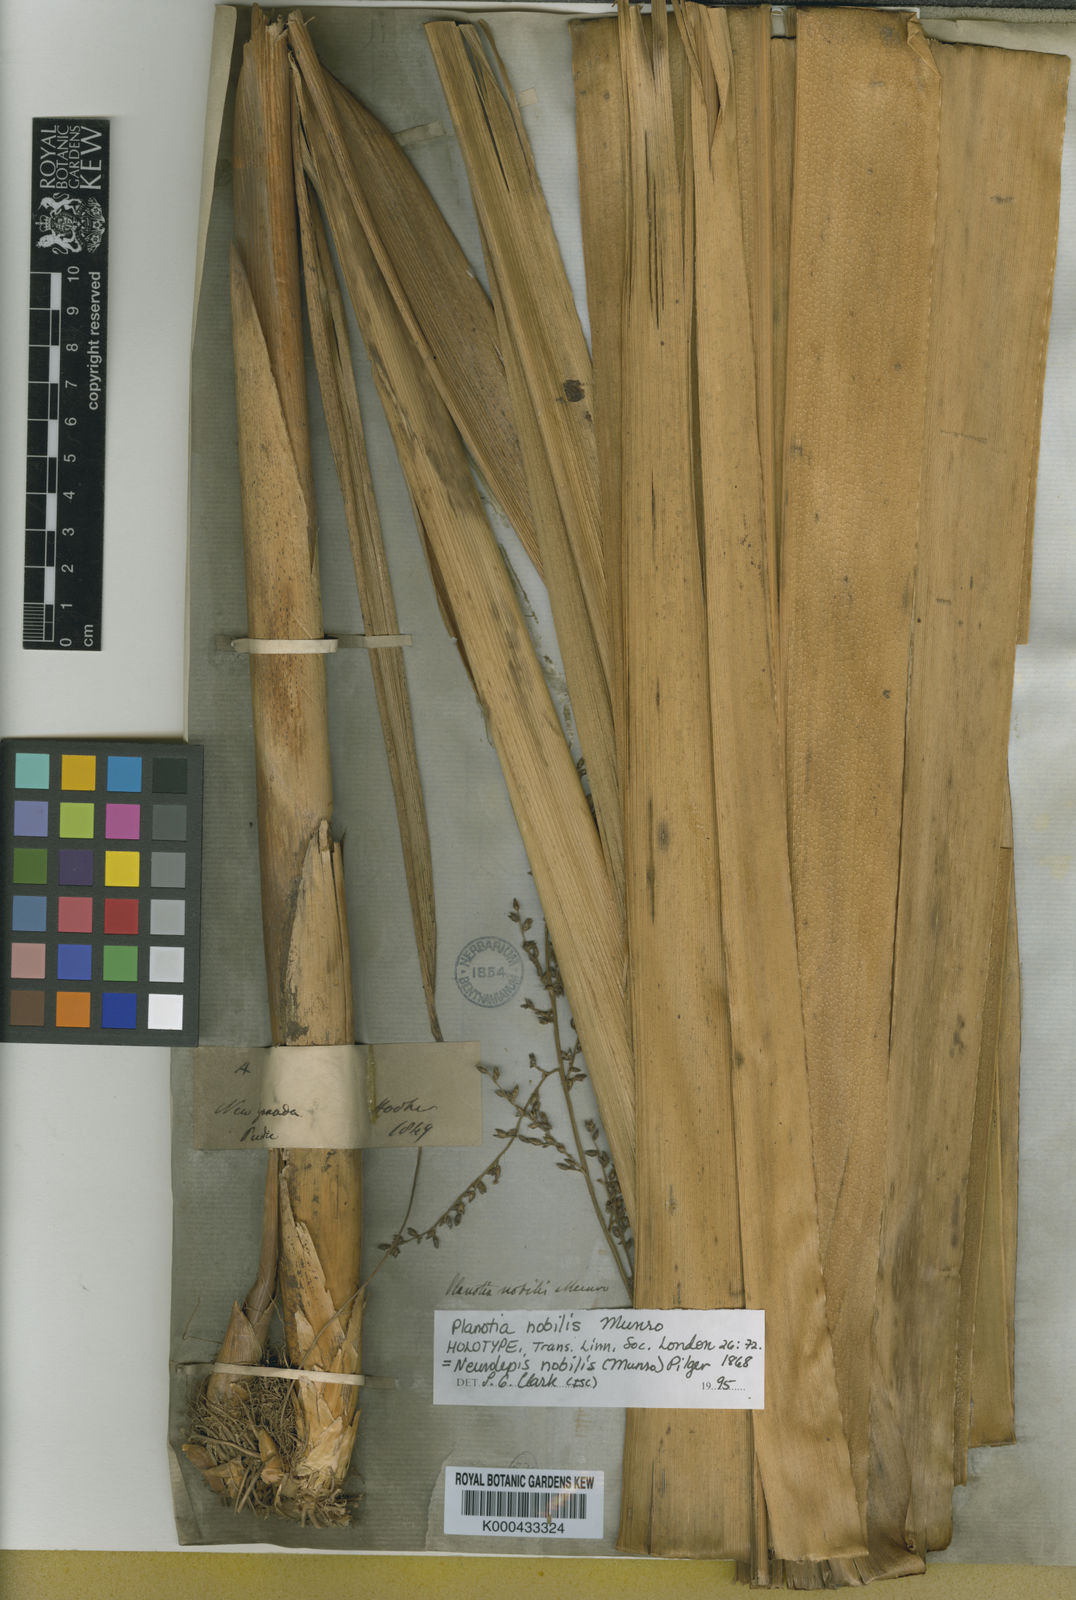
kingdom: Plantae
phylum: Tracheophyta
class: Liliopsida
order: Poales
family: Poaceae
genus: Chusquea
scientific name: Chusquea nobilis
